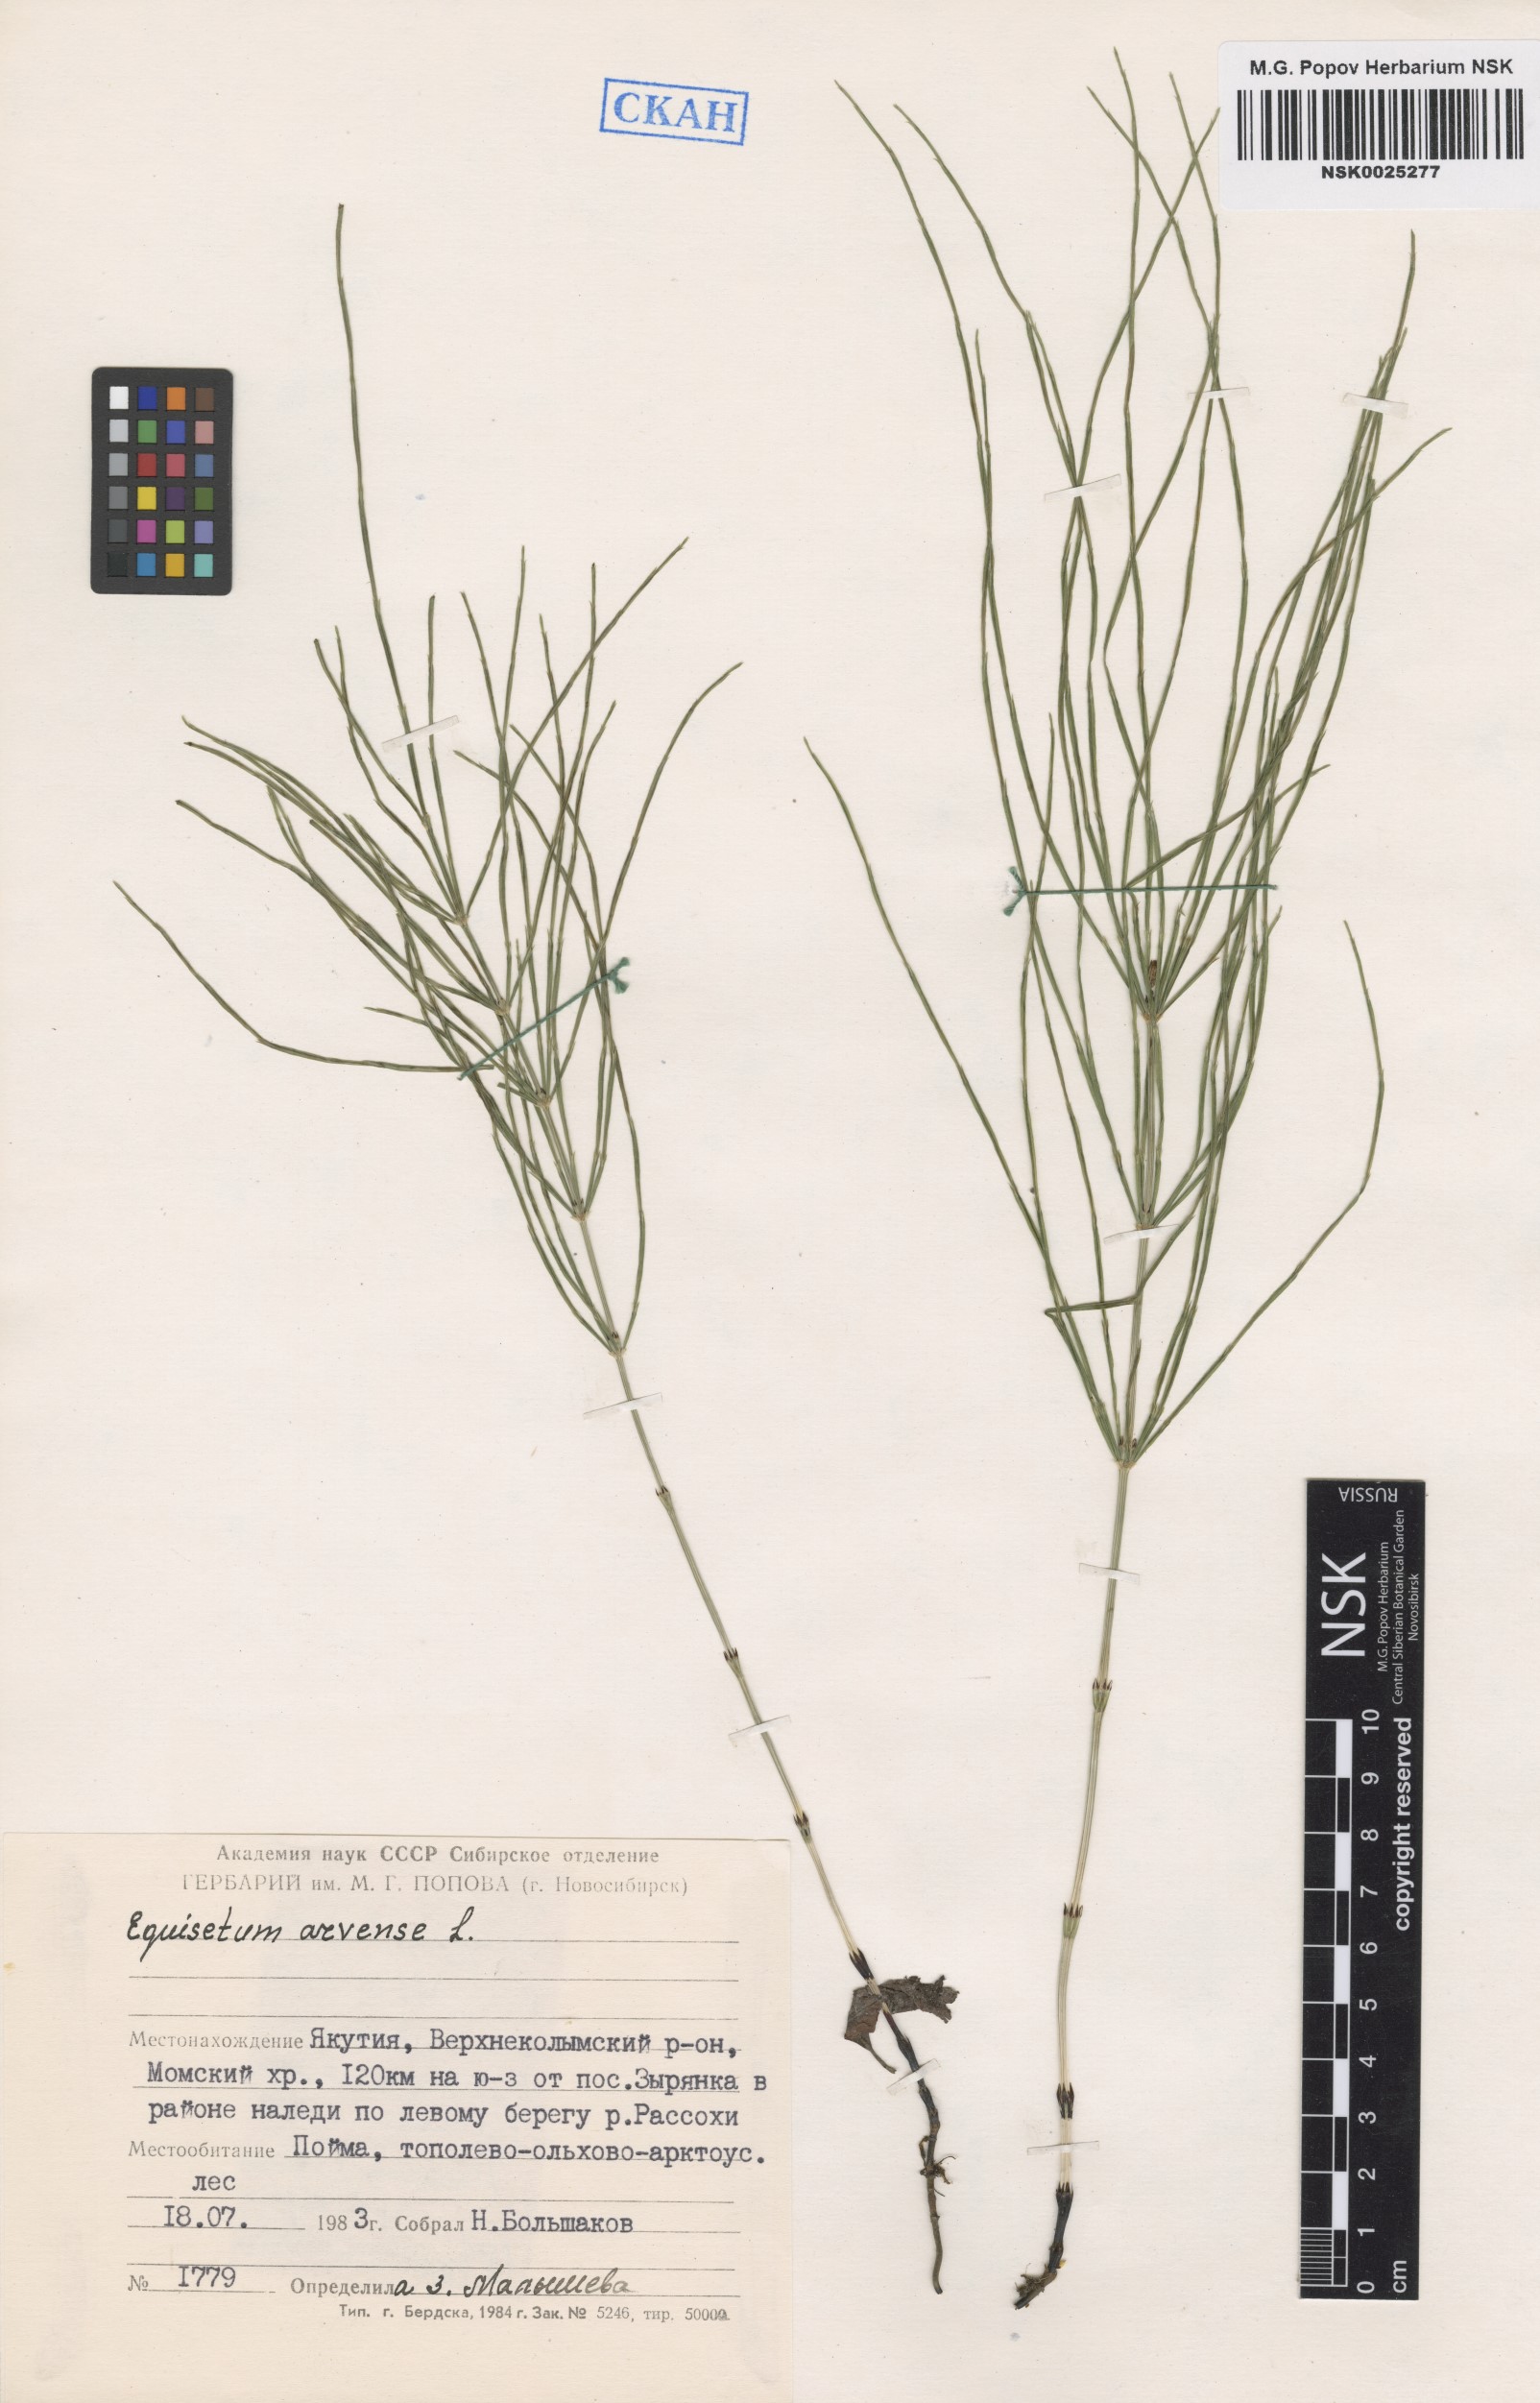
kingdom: Plantae
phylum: Tracheophyta
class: Polypodiopsida
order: Equisetales
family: Equisetaceae
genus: Equisetum
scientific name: Equisetum arvense
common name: Field horsetail
